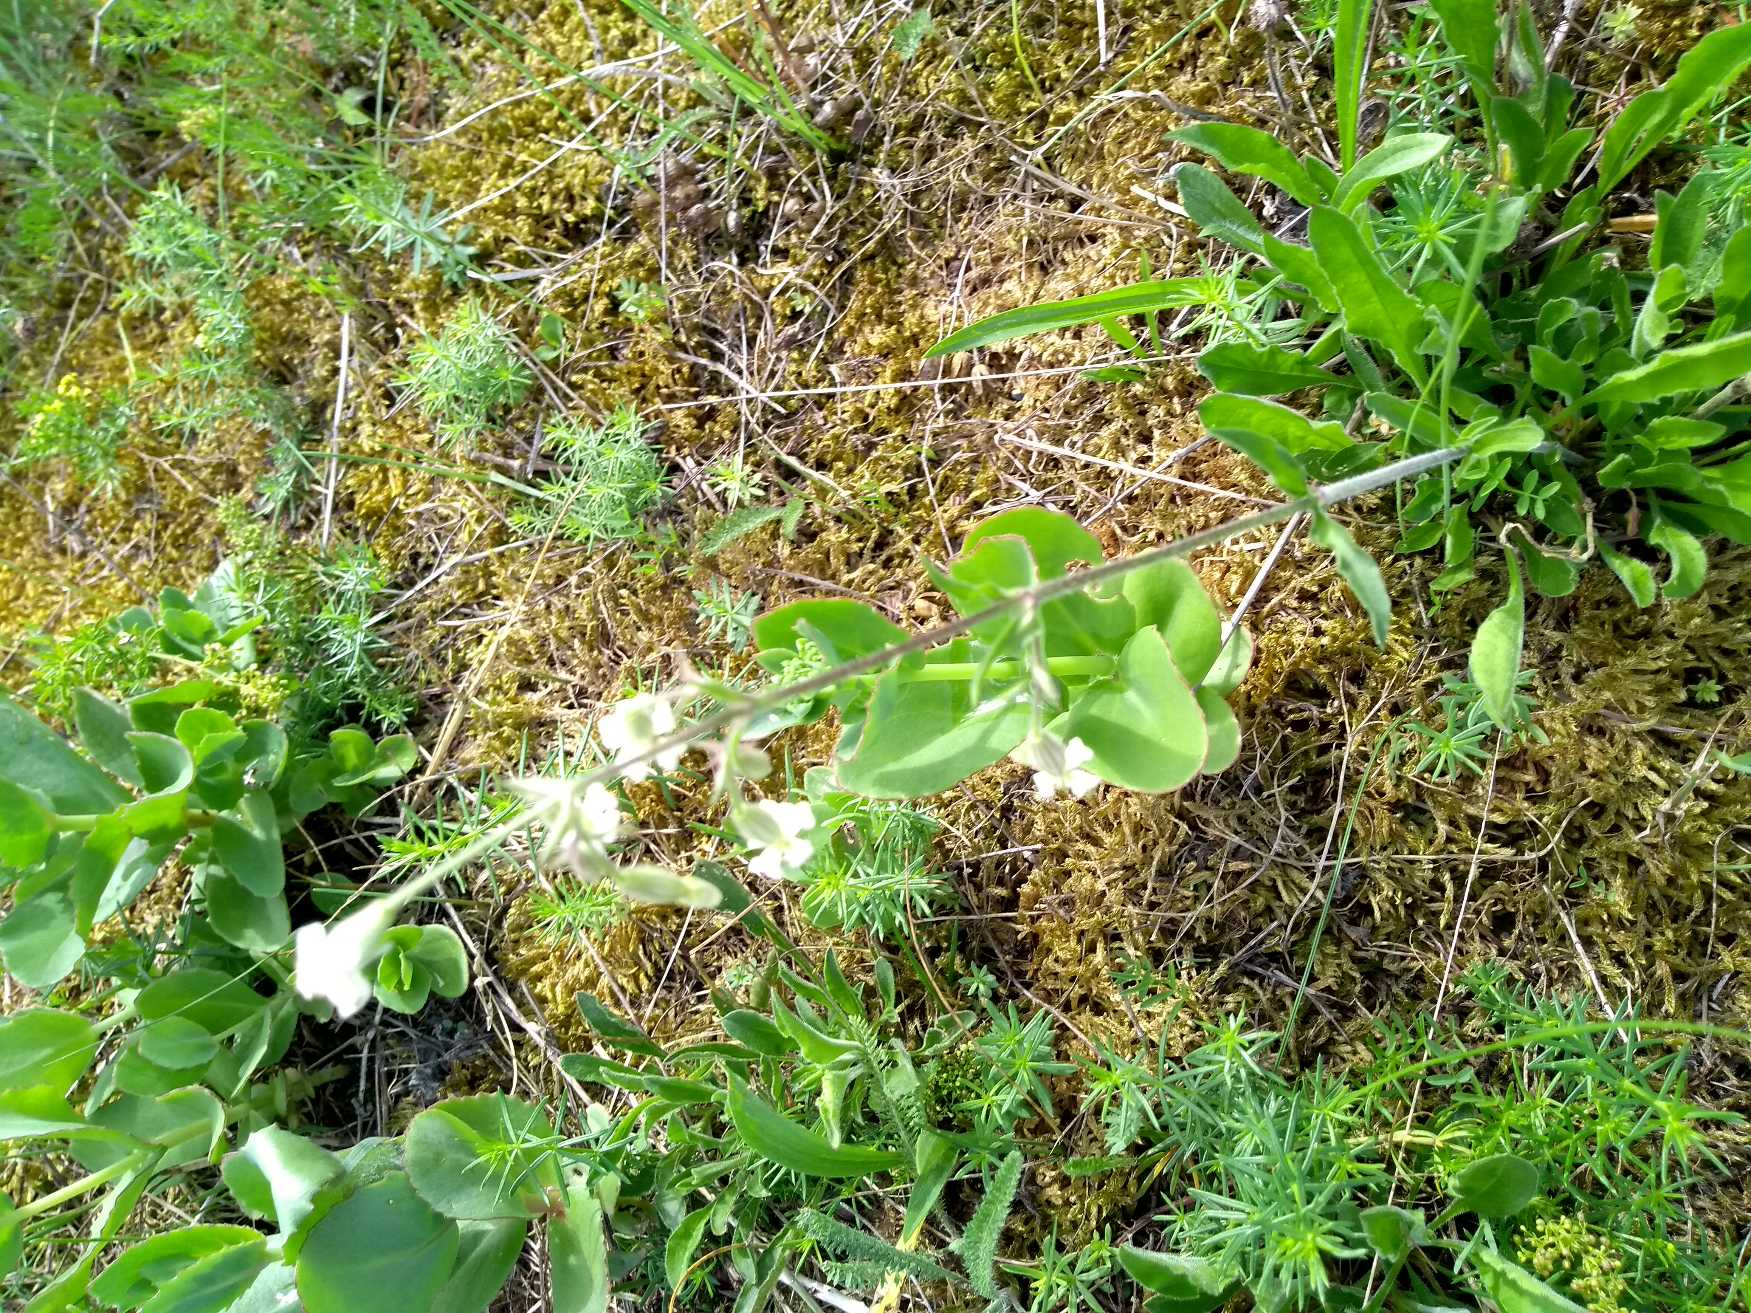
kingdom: Plantae
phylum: Tracheophyta
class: Magnoliopsida
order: Caryophyllales
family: Caryophyllaceae
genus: Silene
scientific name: Silene nutans
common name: Nikkende limurt
